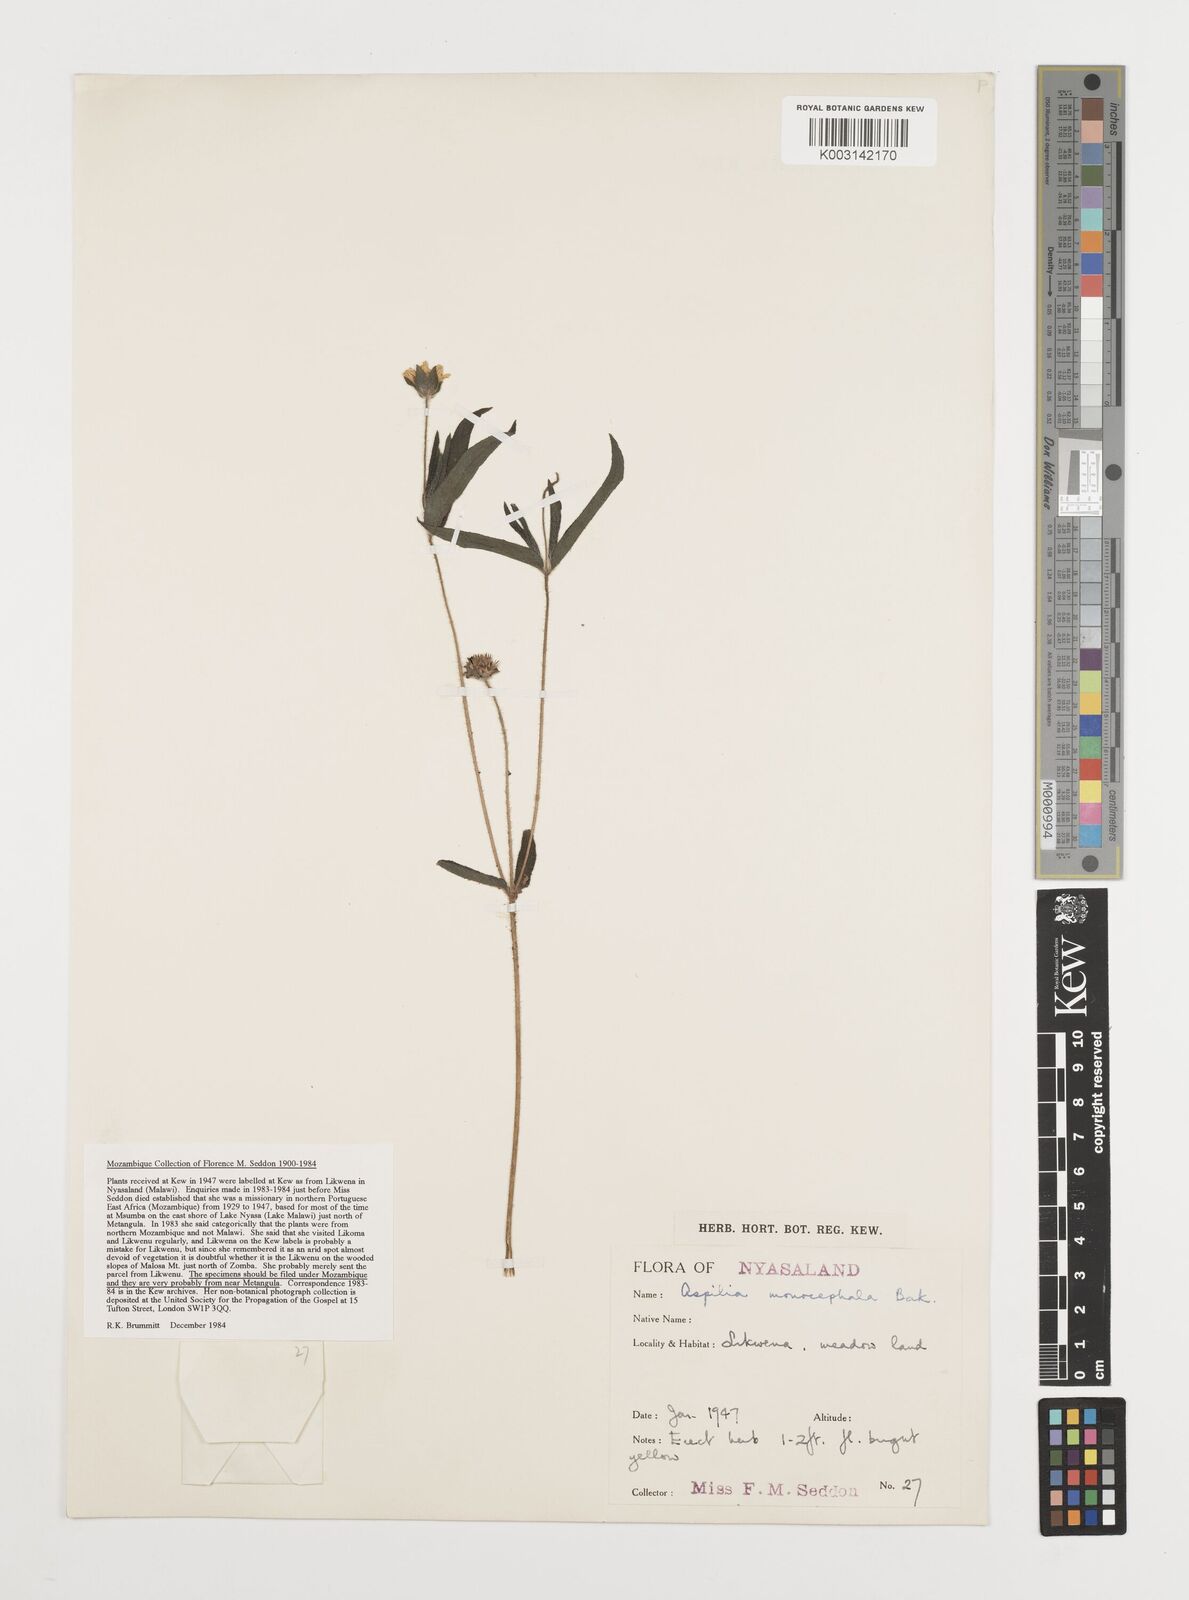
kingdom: Plantae
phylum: Tracheophyta
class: Magnoliopsida
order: Asterales
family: Asteraceae
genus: Aspilia
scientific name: Aspilia natalensis
